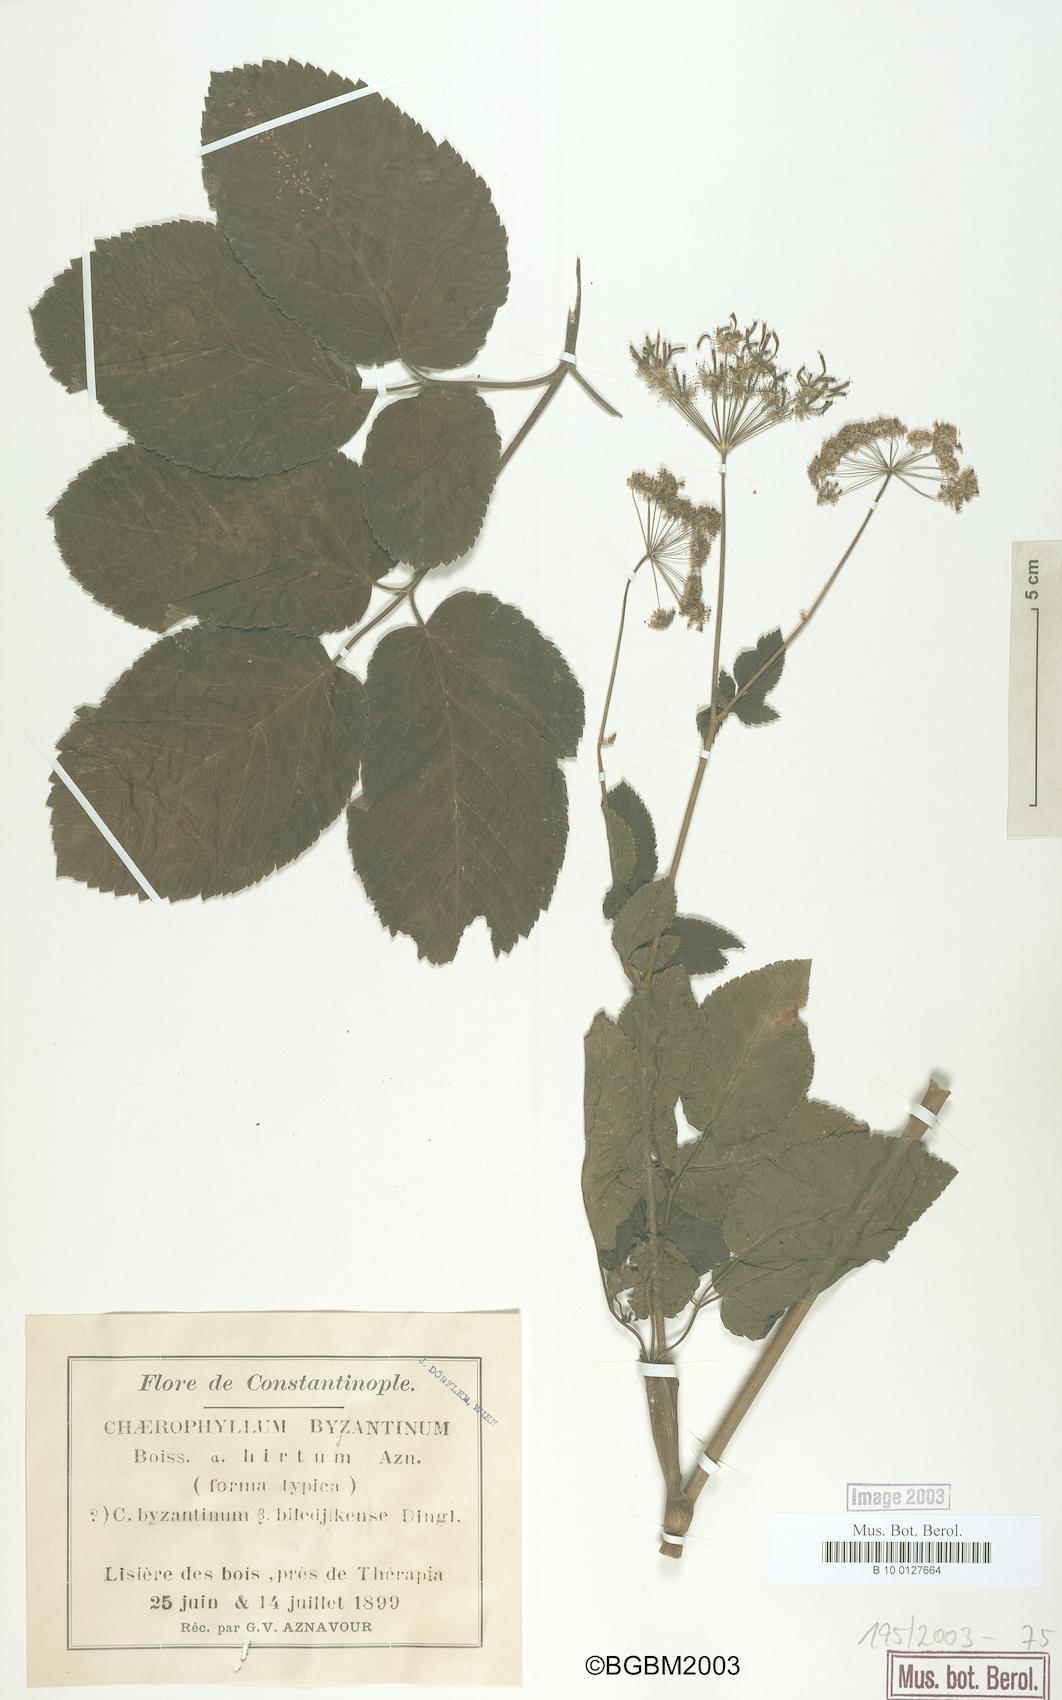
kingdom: Plantae
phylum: Tracheophyta
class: Magnoliopsida
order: Apiales
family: Apiaceae
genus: Chaerophyllum
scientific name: Chaerophyllum byzantinum
